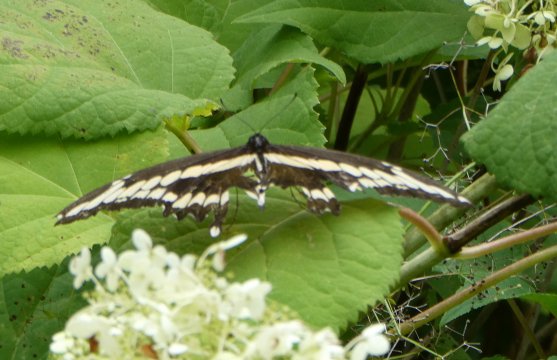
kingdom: Animalia
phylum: Arthropoda
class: Insecta
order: Lepidoptera
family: Papilionidae
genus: Papilio
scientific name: Papilio cresphontes
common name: Eastern Giant Swallowtail
